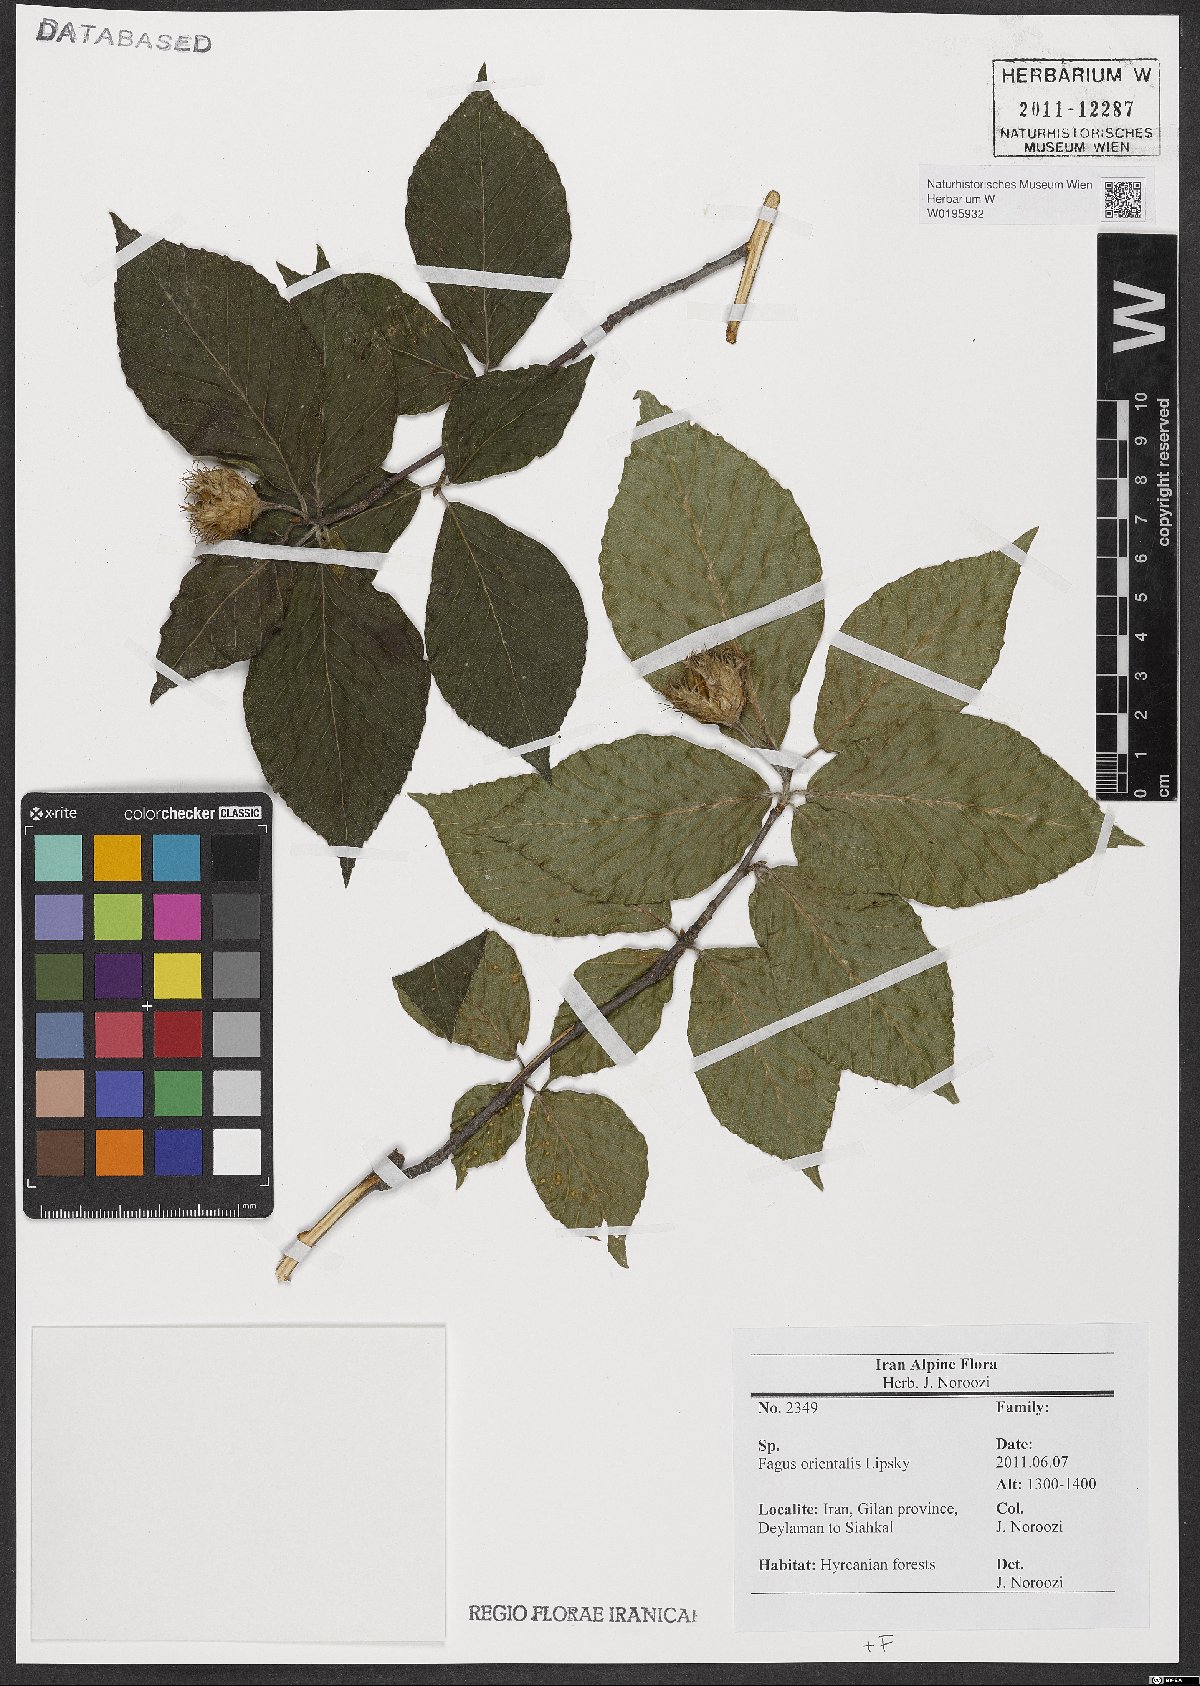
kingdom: Plantae
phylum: Tracheophyta
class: Magnoliopsida
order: Fagales
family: Fagaceae
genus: Fagus
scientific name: Fagus orientalis
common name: Oriental beech
